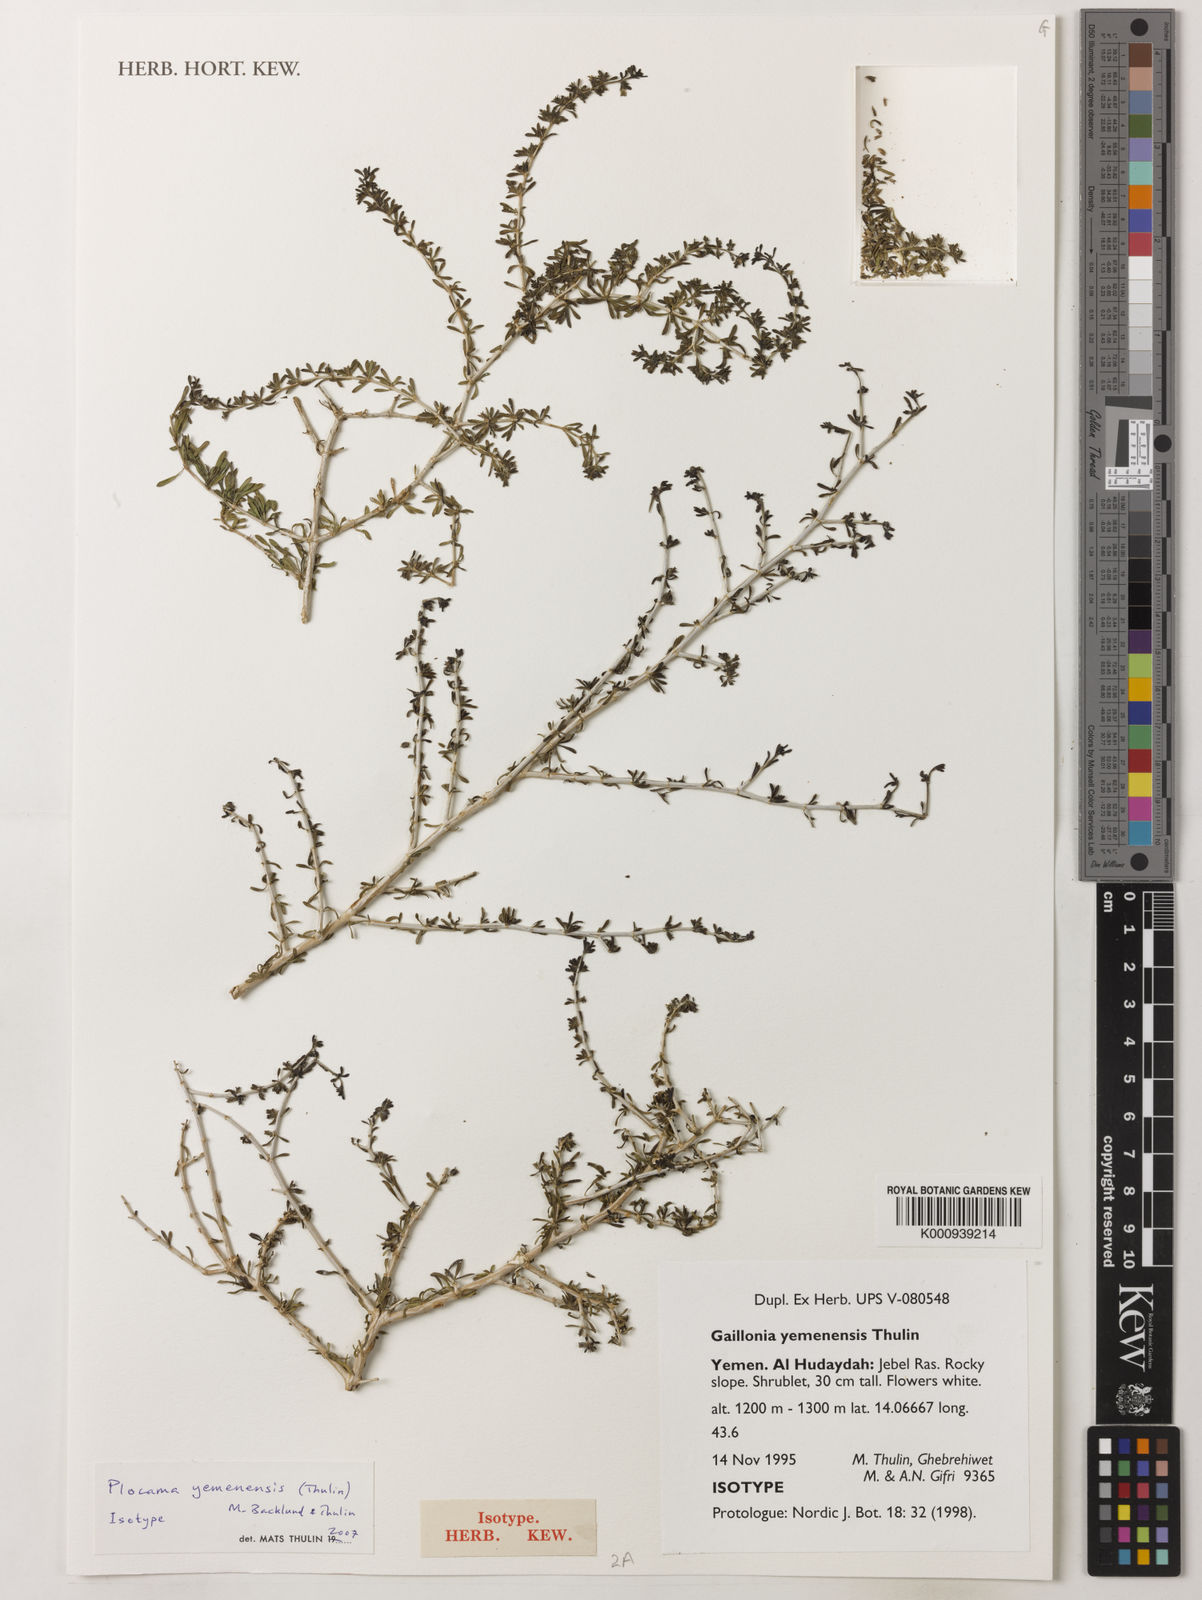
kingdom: Plantae
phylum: Tracheophyta
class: Magnoliopsida
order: Gentianales
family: Rubiaceae
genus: Plocama
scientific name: Plocama yemenensis
